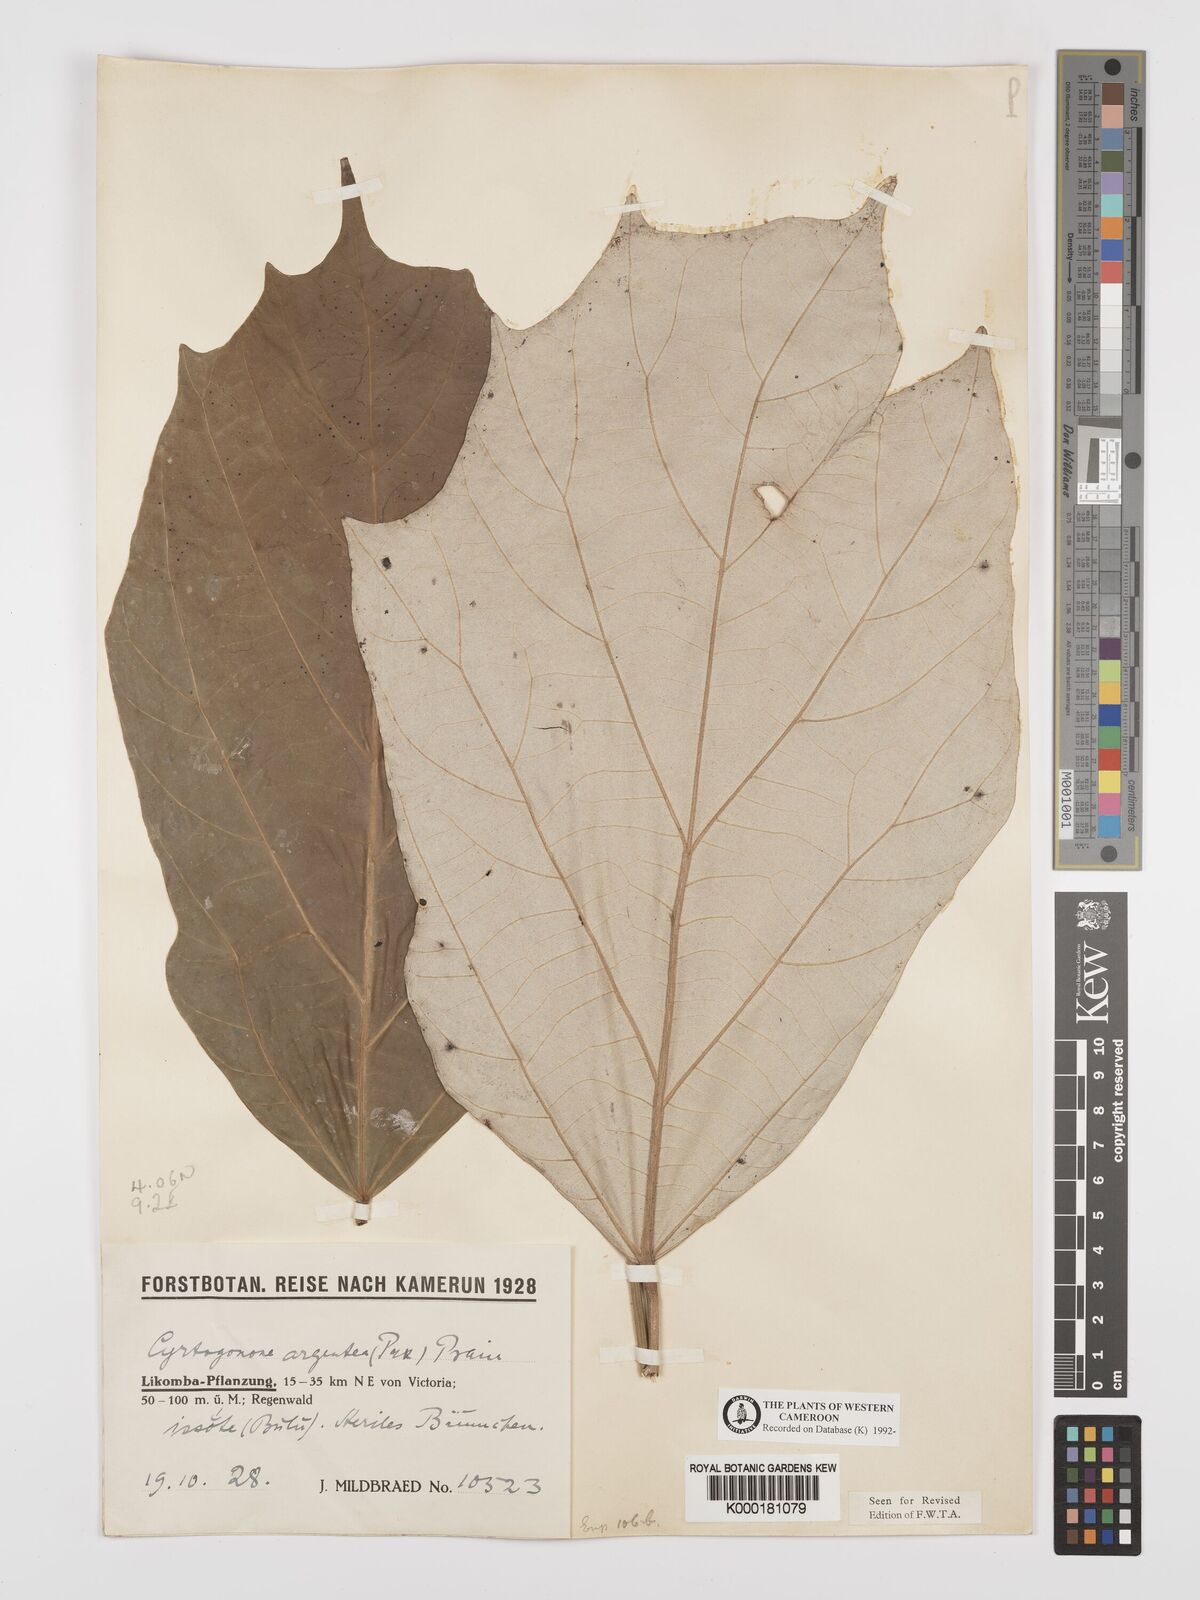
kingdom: Plantae
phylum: Tracheophyta
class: Magnoliopsida
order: Malpighiales
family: Euphorbiaceae
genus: Cyrtogonone
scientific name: Cyrtogonone argentea
